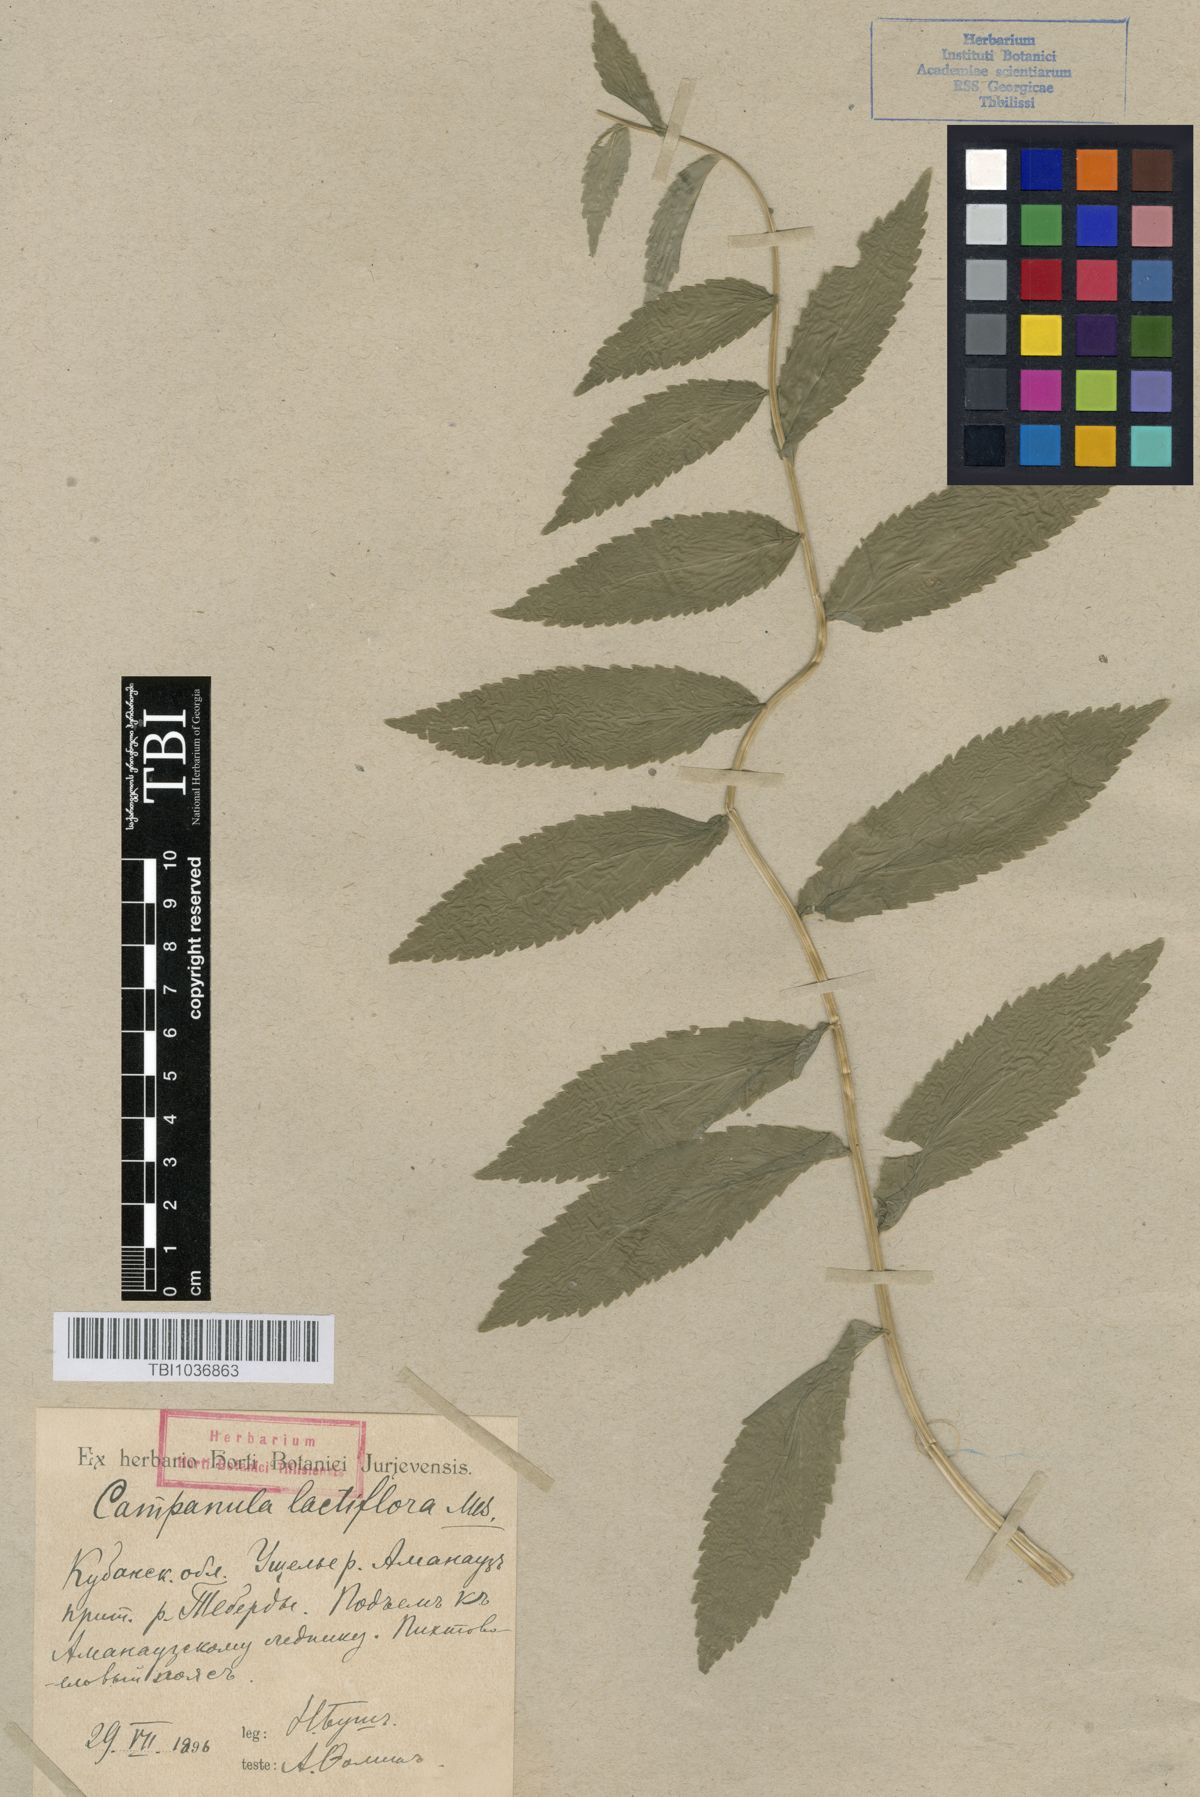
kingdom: Plantae
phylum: Tracheophyta
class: Magnoliopsida
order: Asterales
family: Campanulaceae
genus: Campanula
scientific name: Campanula lactiflora
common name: Milky bellflower
